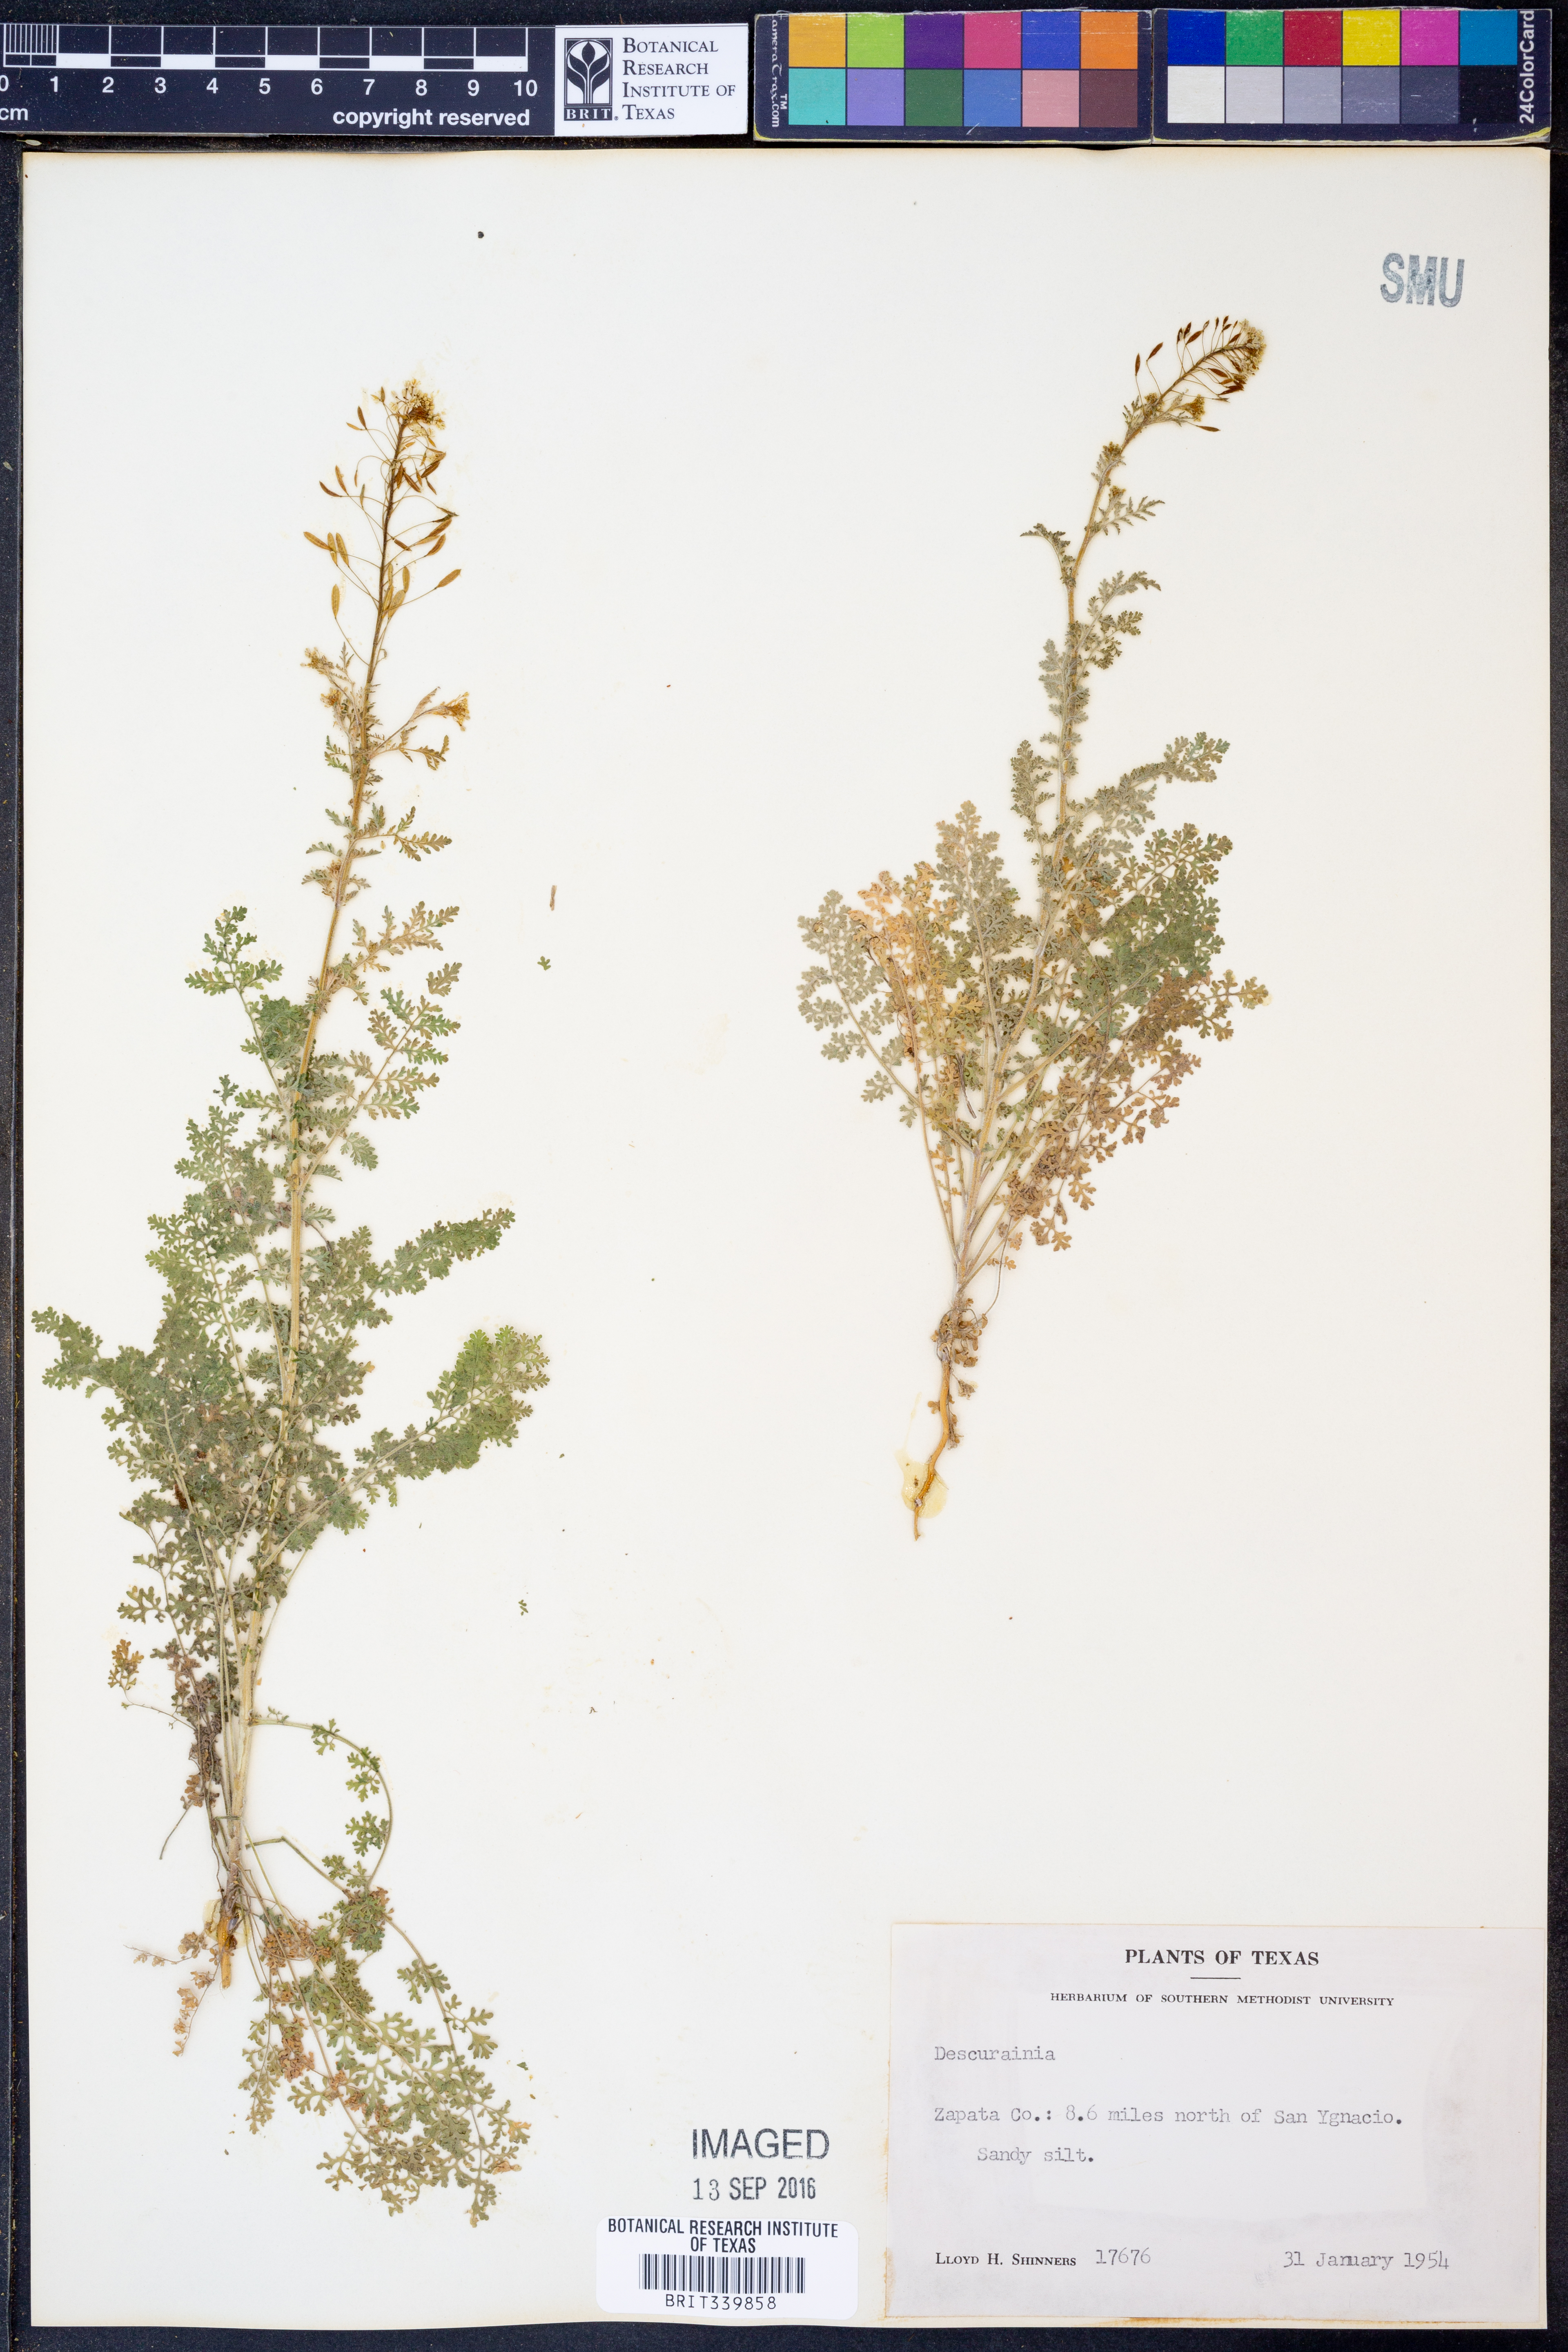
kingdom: Plantae
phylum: Tracheophyta
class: Magnoliopsida
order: Brassicales
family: Brassicaceae
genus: Descurainia
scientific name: Descurainia
